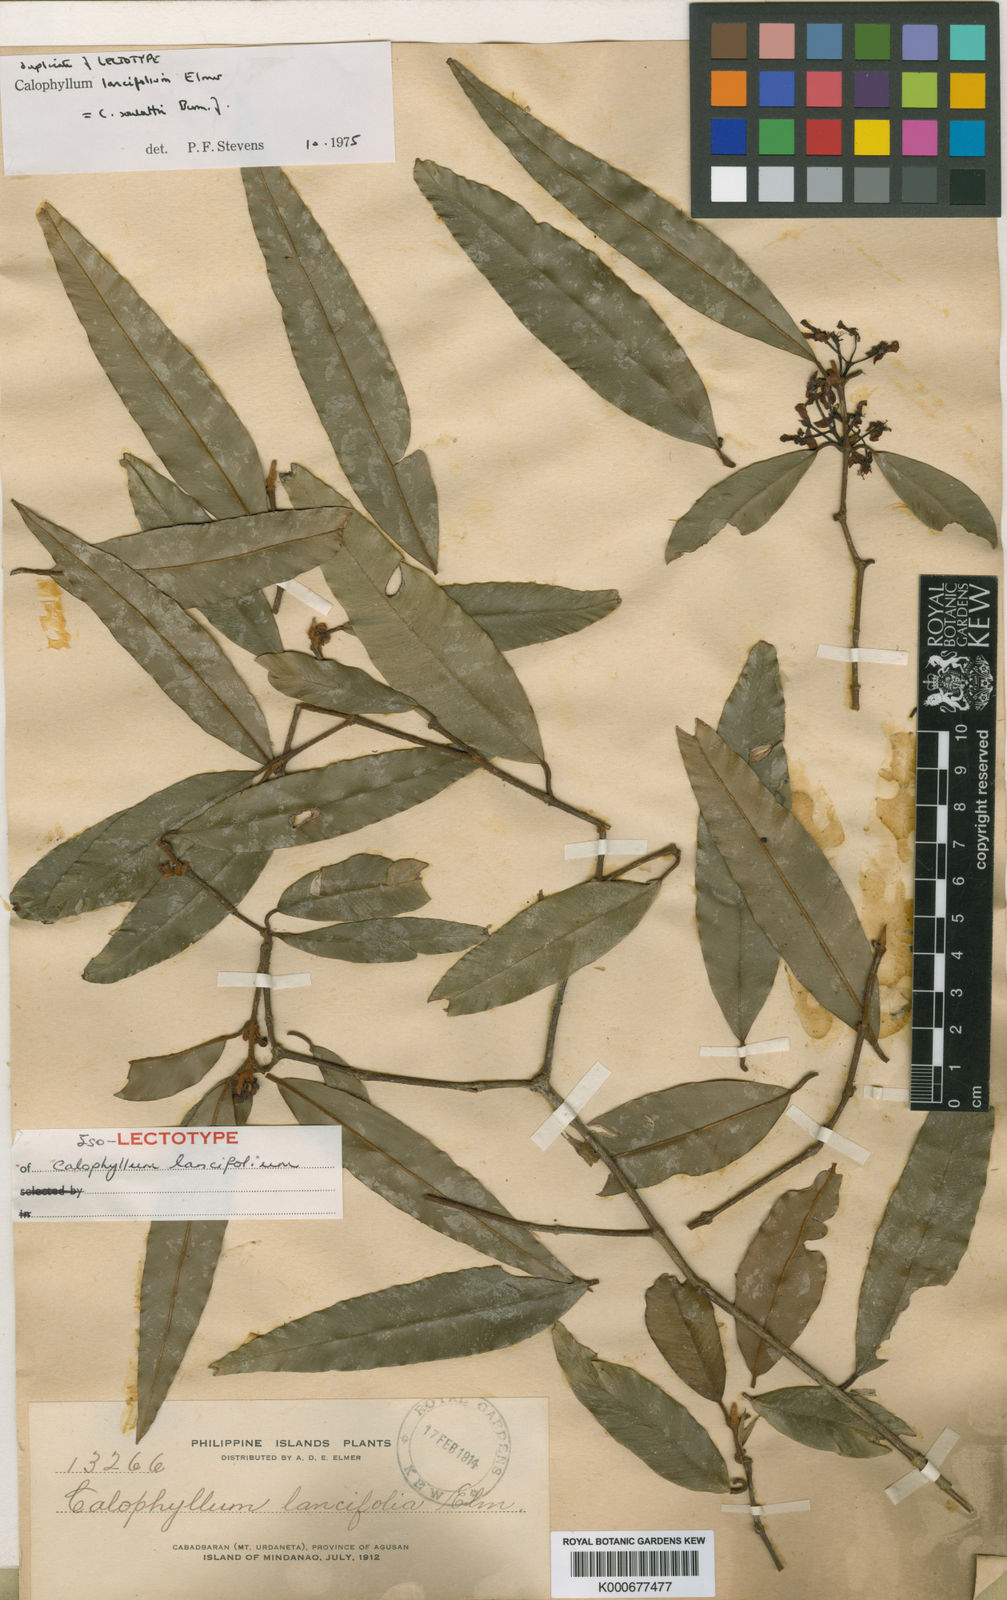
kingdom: Plantae
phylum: Tracheophyta
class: Magnoliopsida
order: Malpighiales
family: Calophyllaceae
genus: Calophyllum
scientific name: Calophyllum soulattri
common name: Bitangoor boonot
